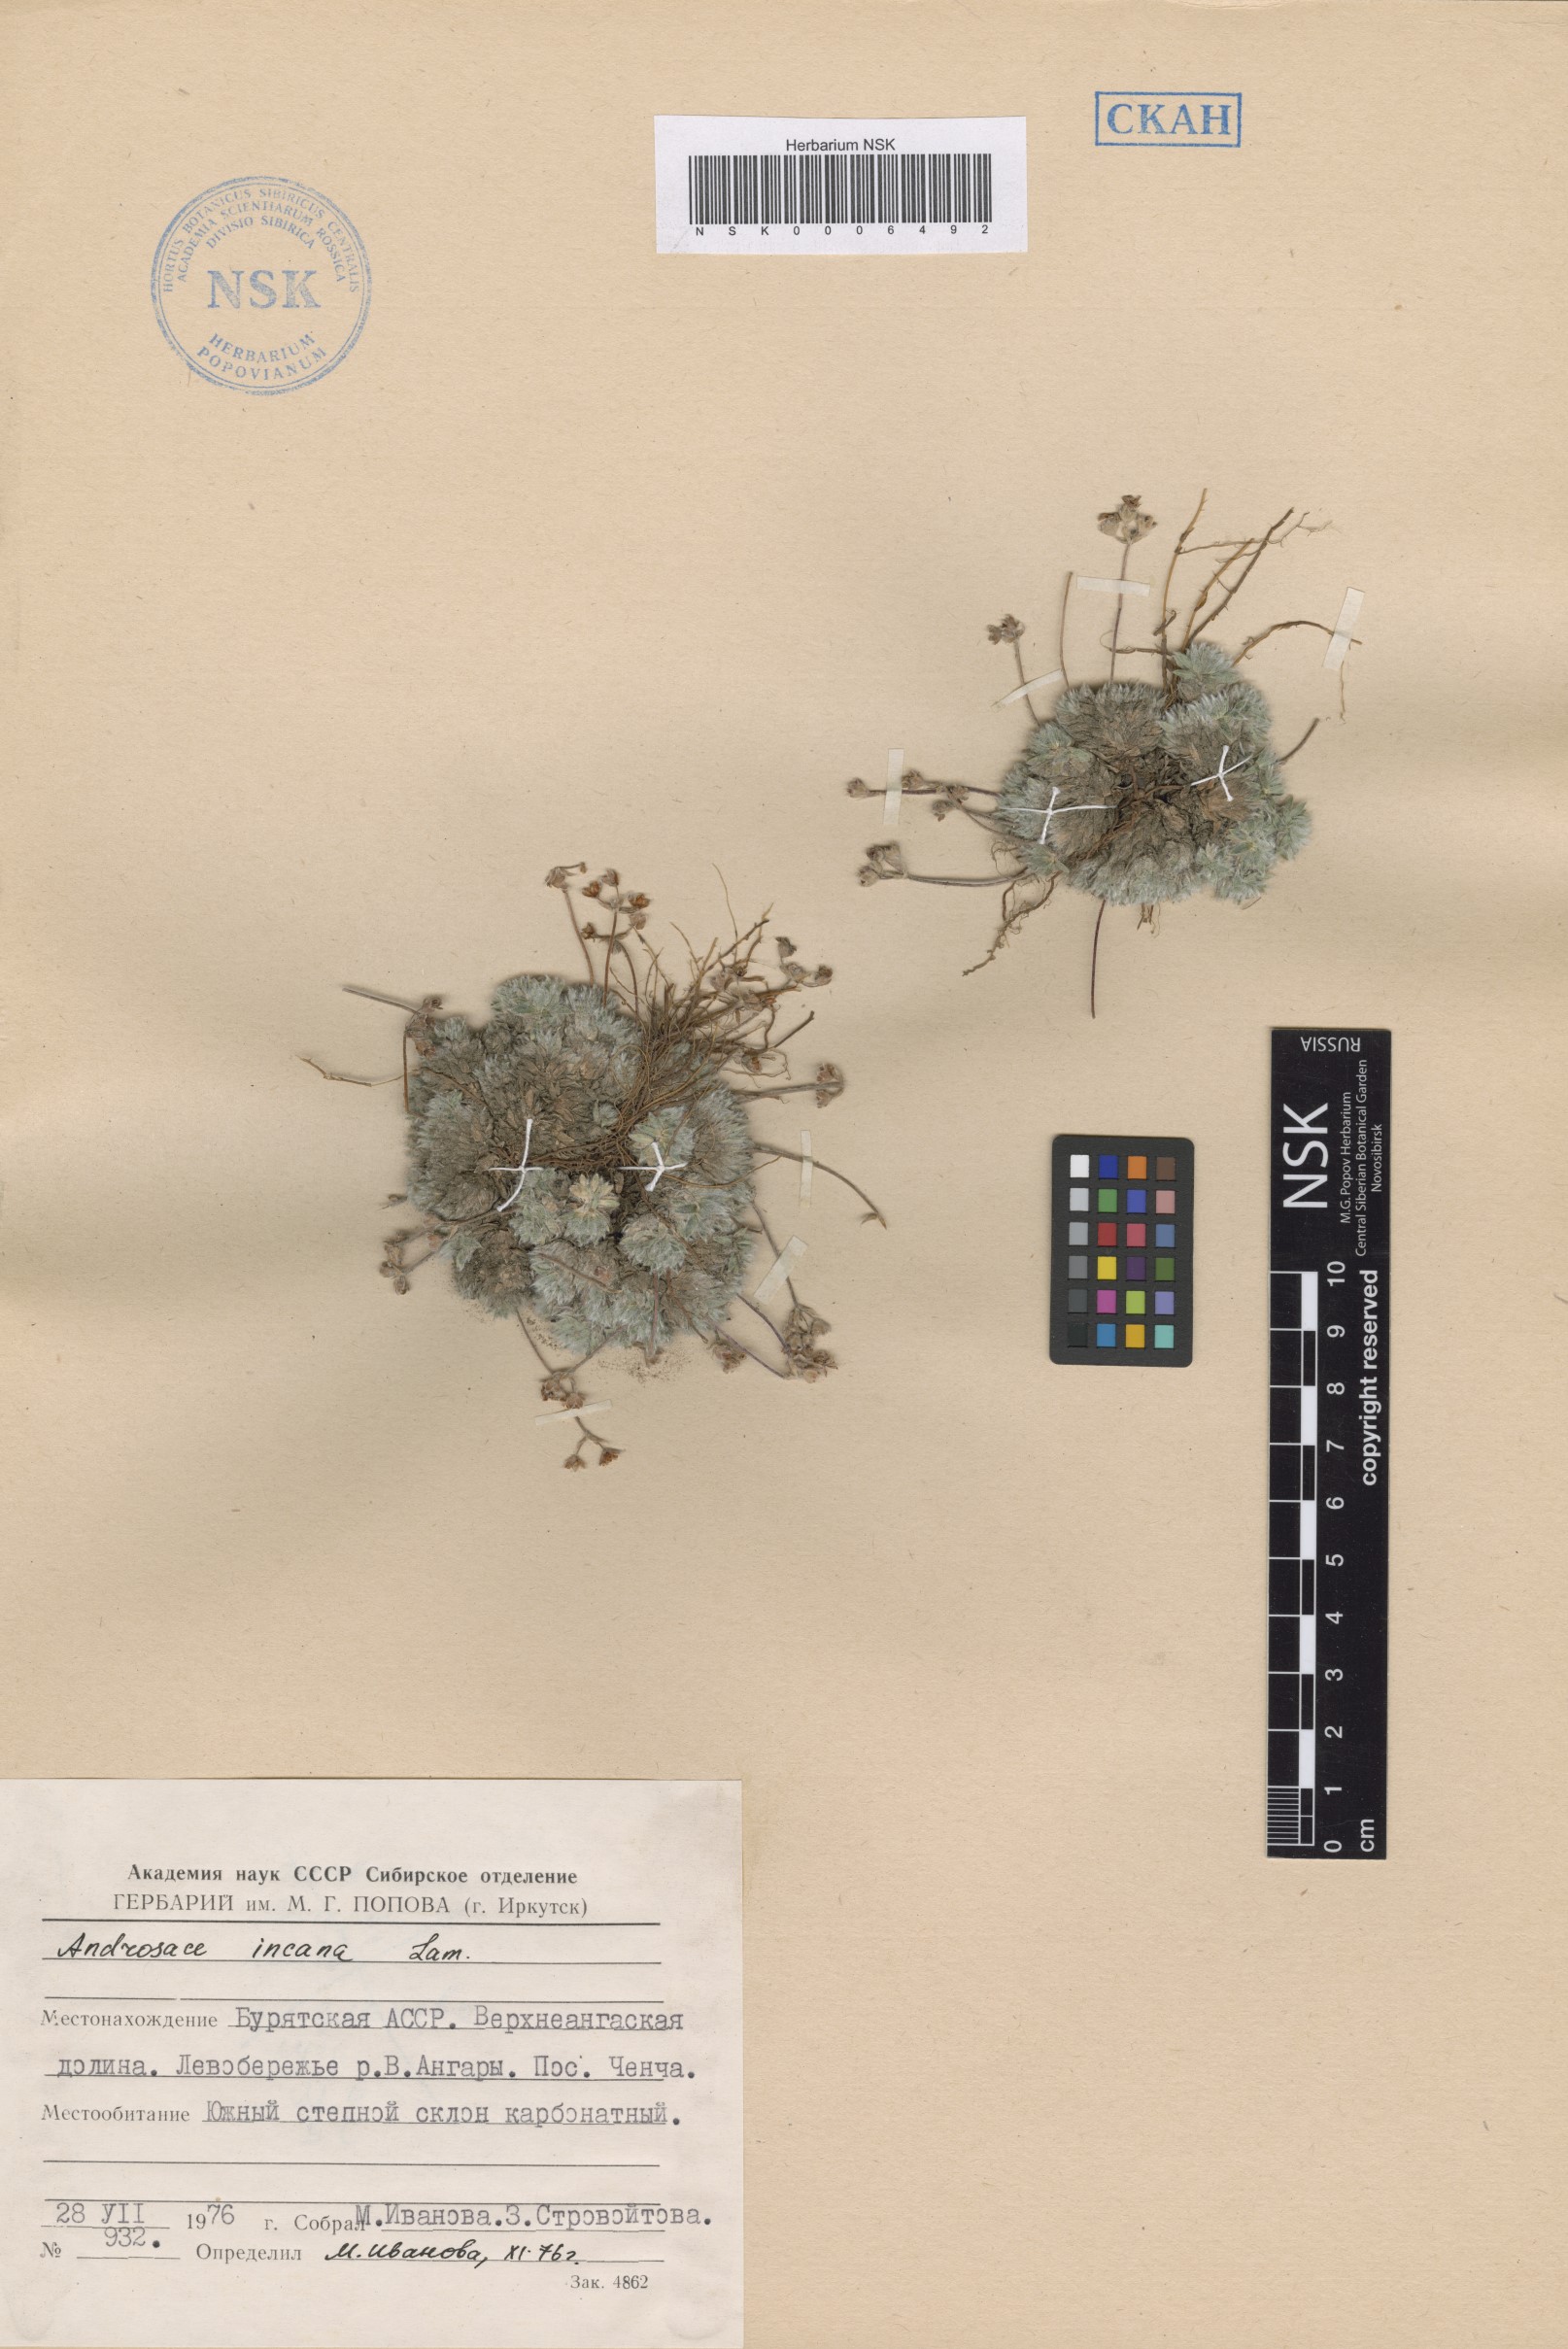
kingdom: Plantae
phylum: Tracheophyta
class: Magnoliopsida
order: Ericales
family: Primulaceae
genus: Androsace
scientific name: Androsace incana
